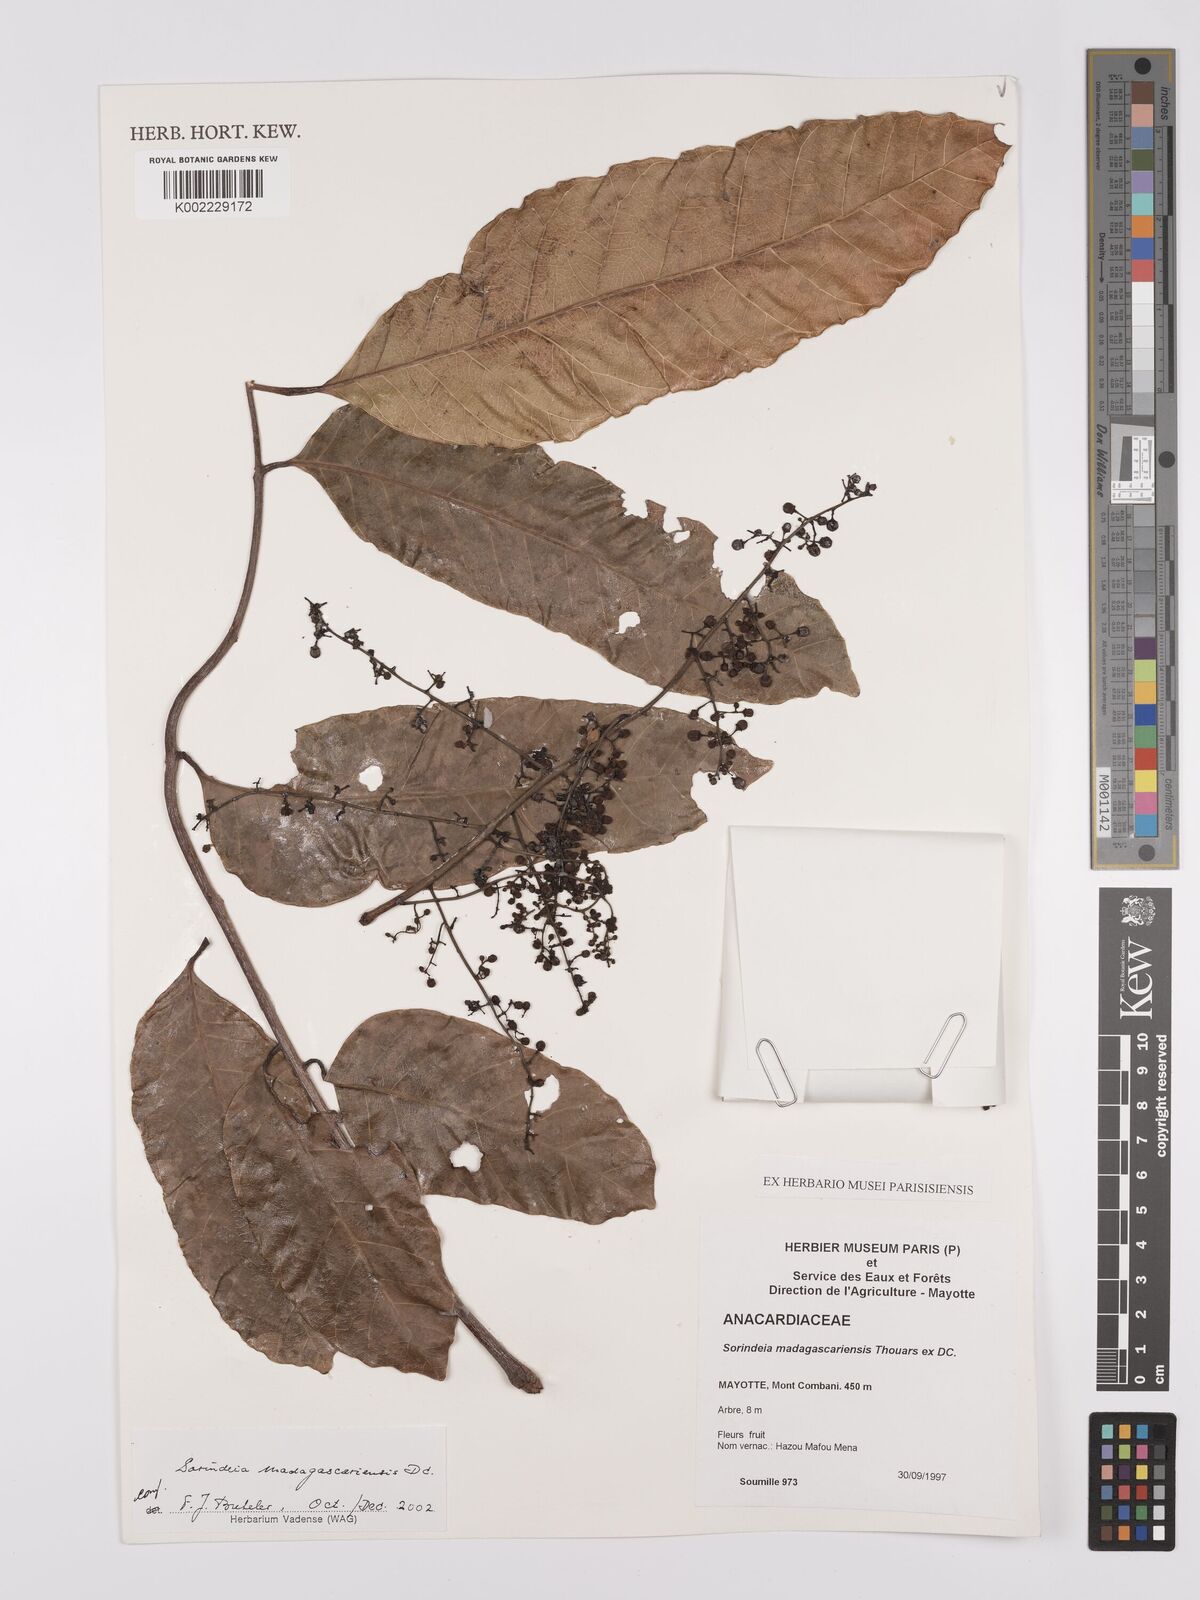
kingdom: Plantae
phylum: Tracheophyta
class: Magnoliopsida
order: Sapindales
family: Anacardiaceae
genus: Sorindeia
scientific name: Sorindeia madagascariensis
